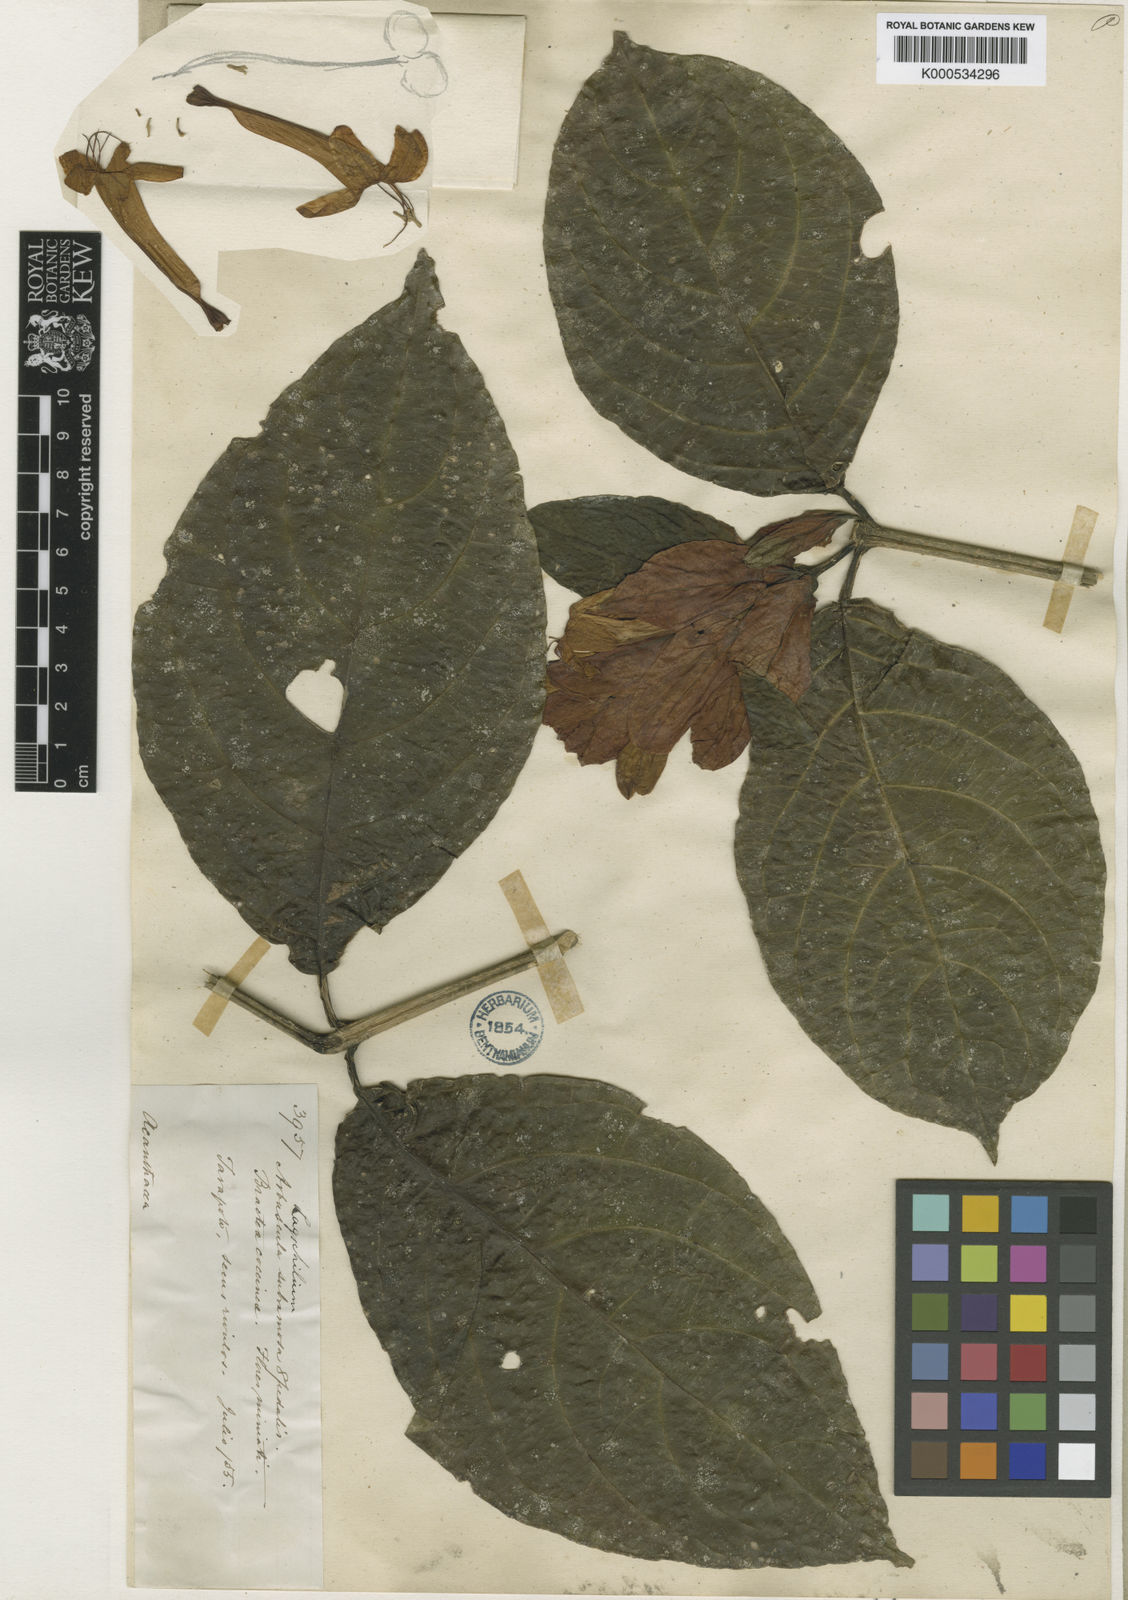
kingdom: Plantae
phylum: Tracheophyta
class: Magnoliopsida
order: Lamiales
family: Acanthaceae
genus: Ruellia
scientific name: Ruellia chartacea
